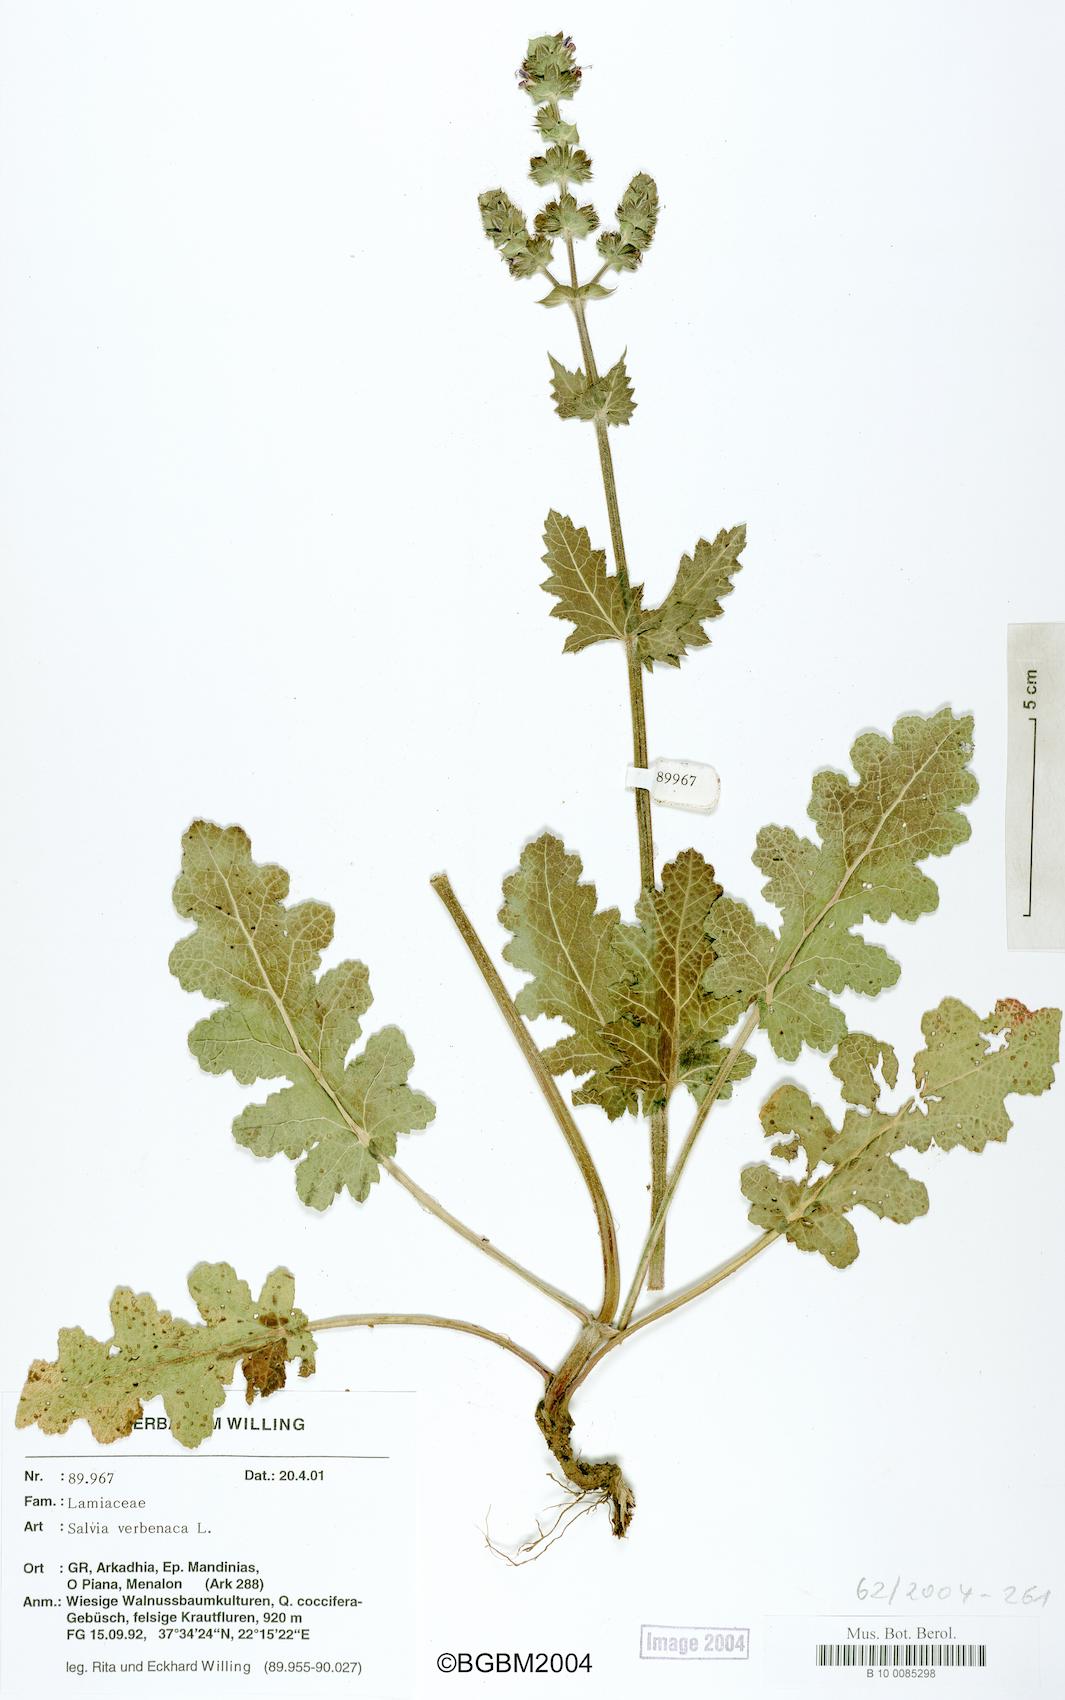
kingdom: Plantae
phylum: Tracheophyta
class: Magnoliopsida
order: Lamiales
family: Lamiaceae
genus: Salvia
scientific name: Salvia verbenaca
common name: Wild clary
